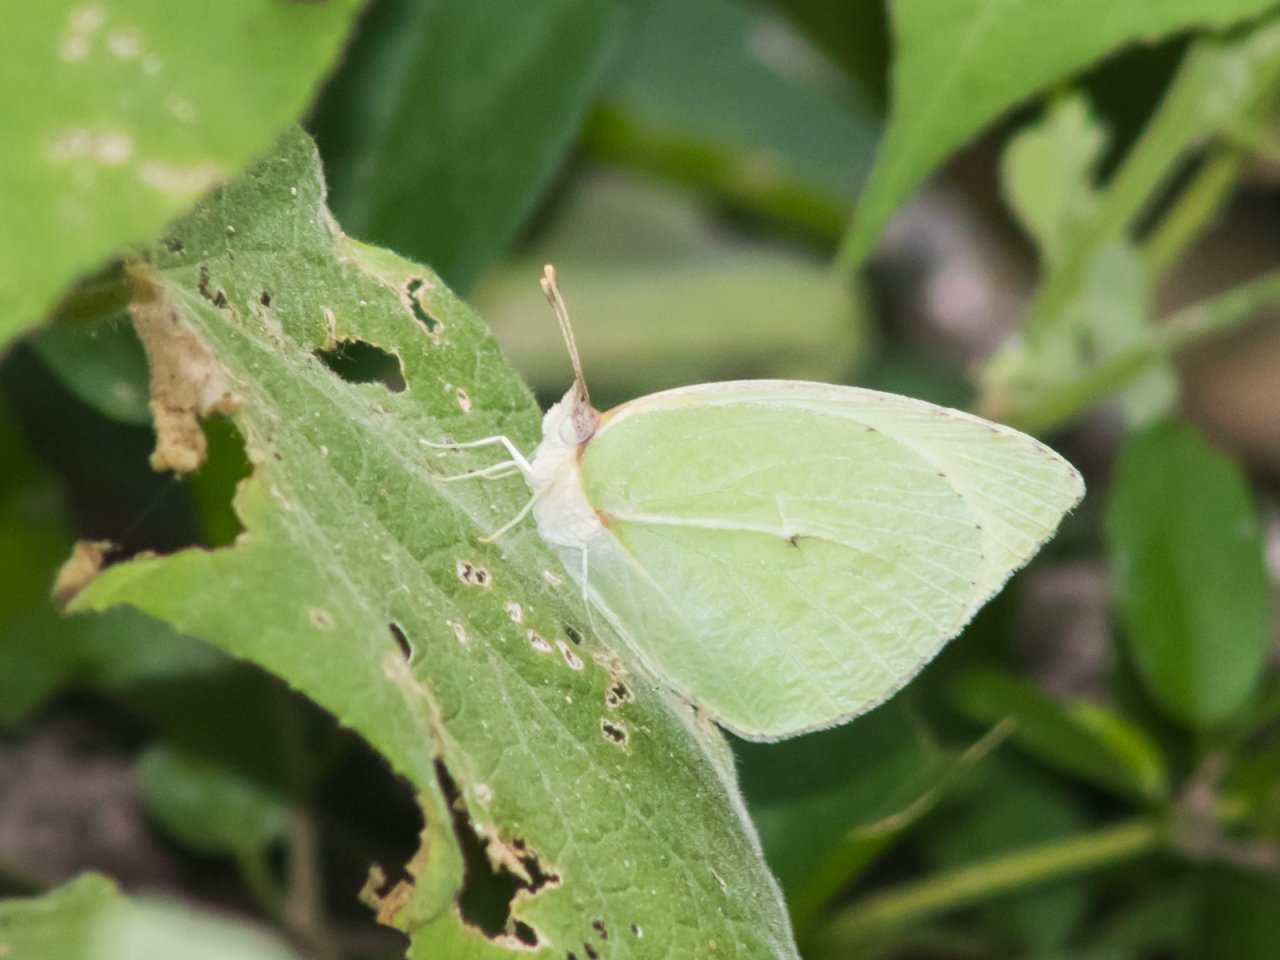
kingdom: Animalia
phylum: Arthropoda
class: Insecta
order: Lepidoptera
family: Pieridae
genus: Kricogonia
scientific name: Kricogonia lyside
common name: Lyside Sulphur
